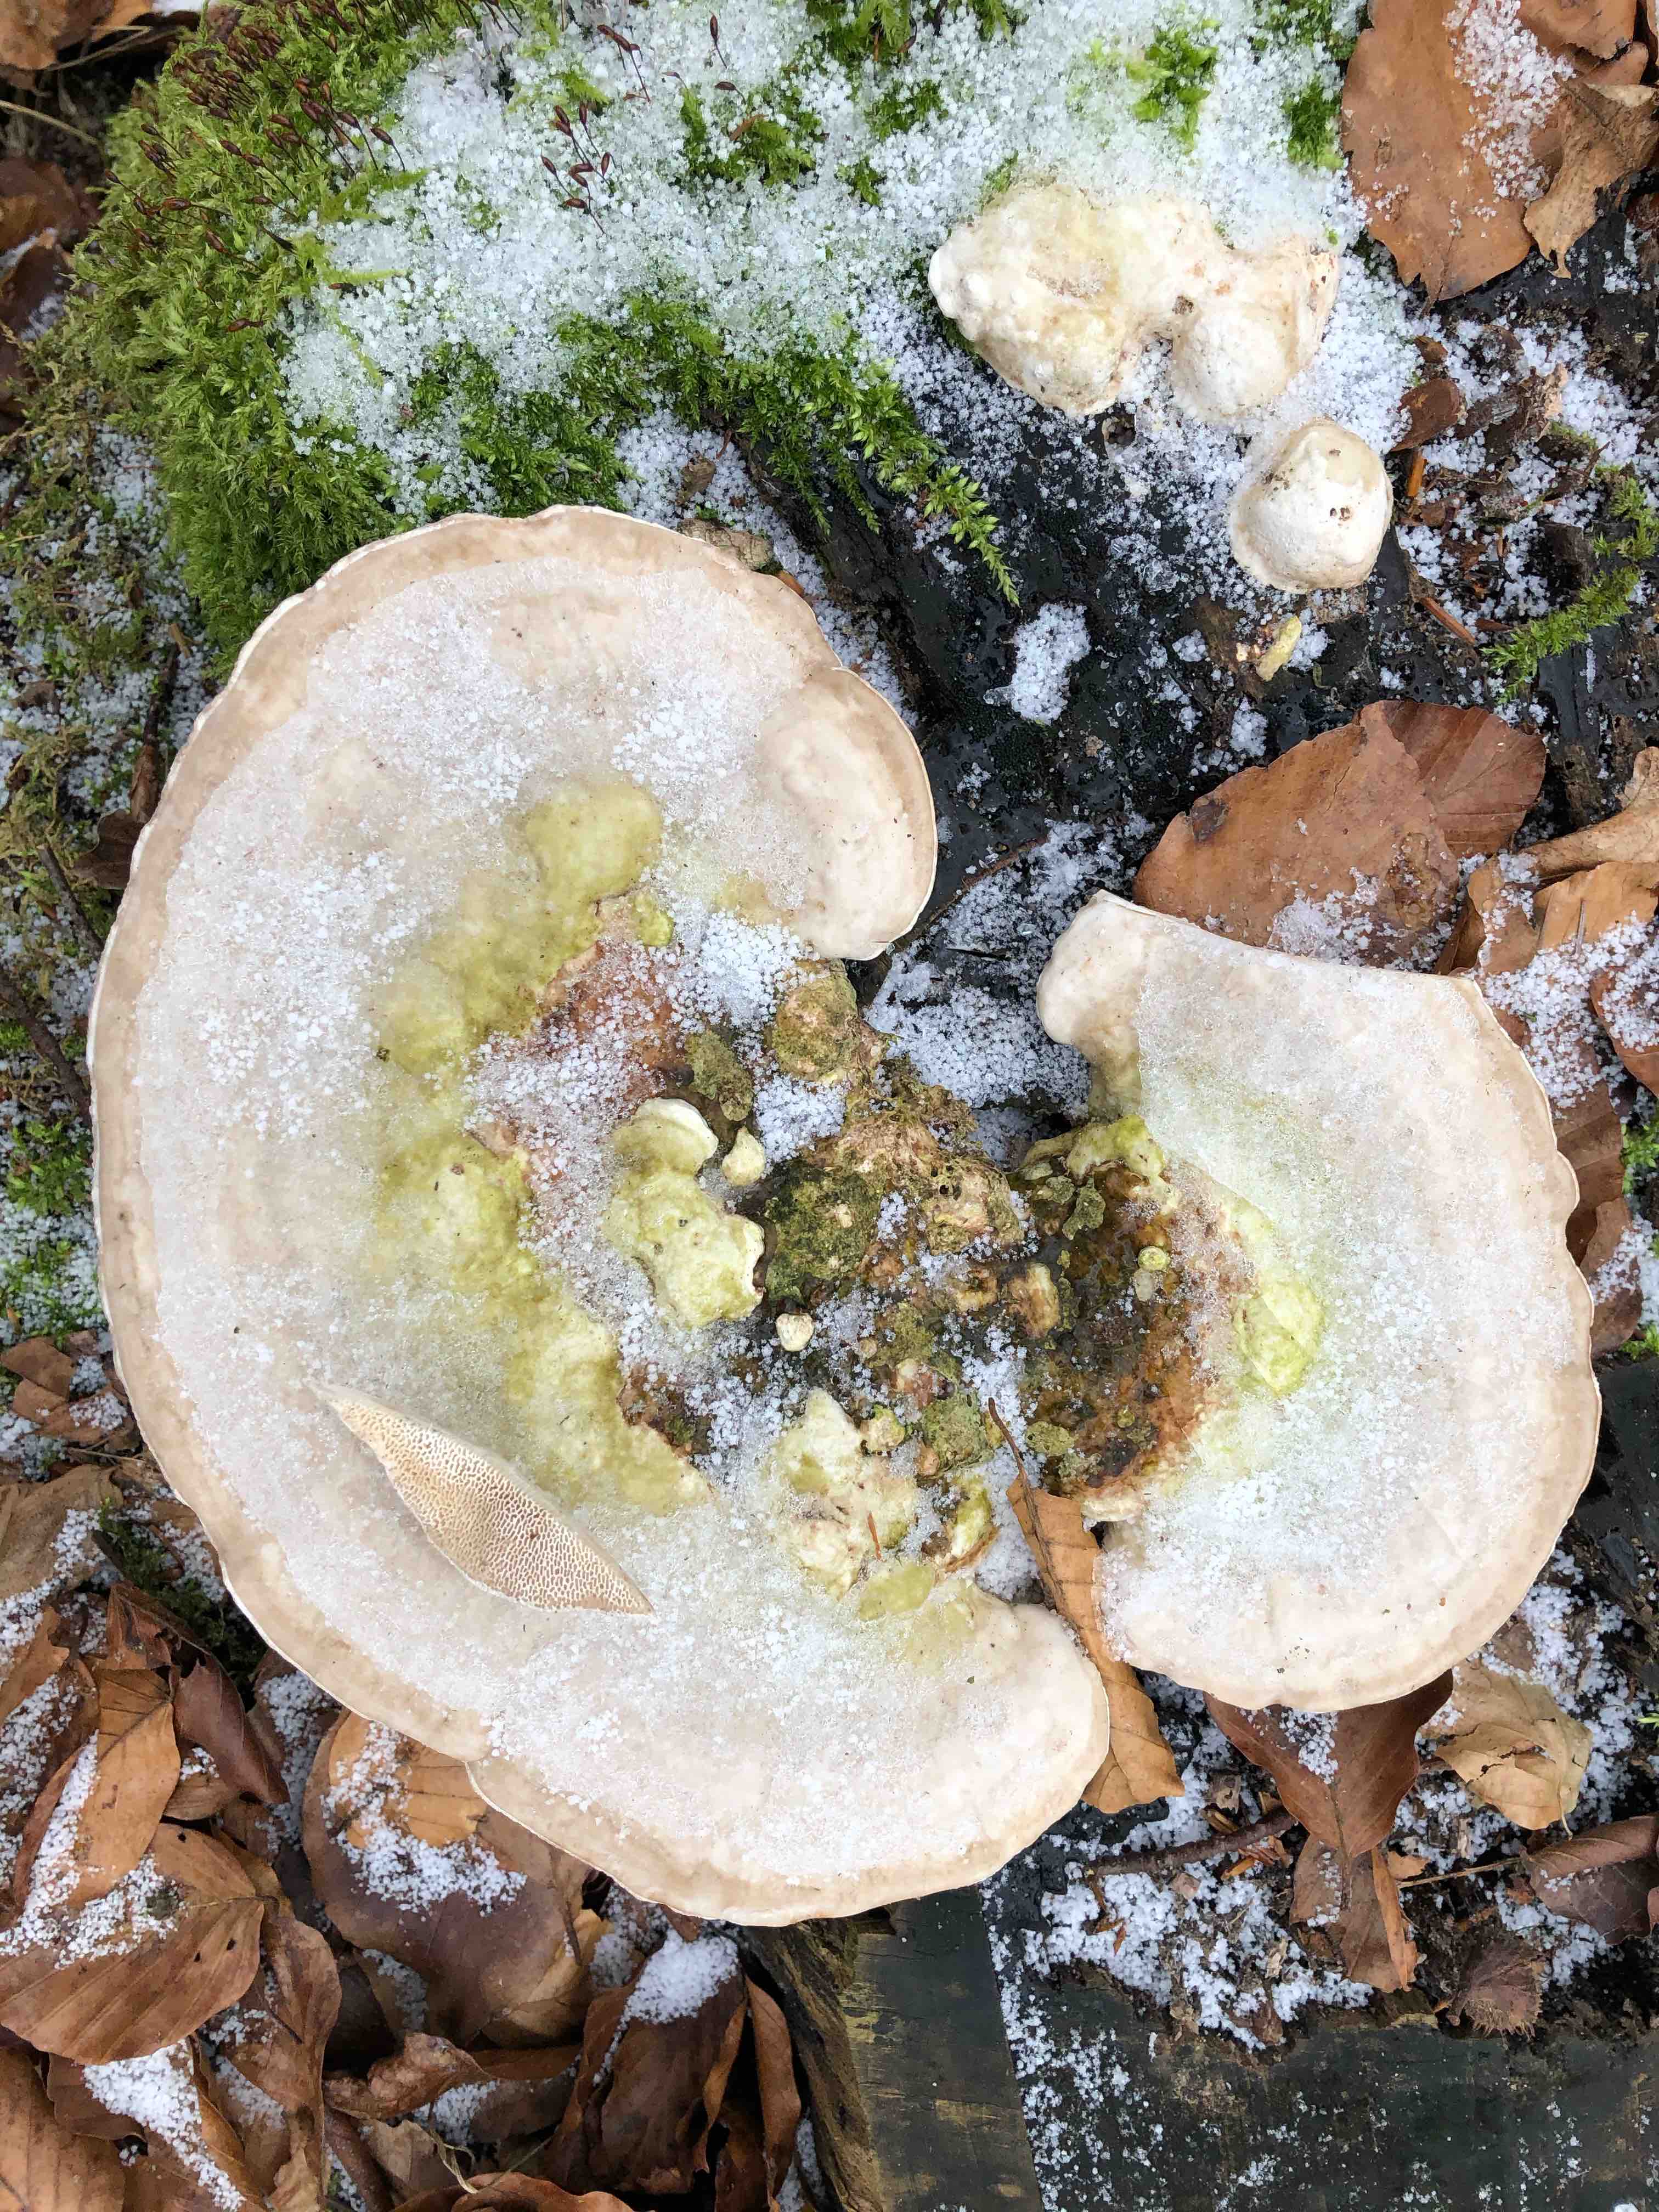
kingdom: Fungi
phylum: Basidiomycota
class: Agaricomycetes
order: Polyporales
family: Polyporaceae
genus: Trametes
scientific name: Trametes gibbosa
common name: puklet læderporesvamp
